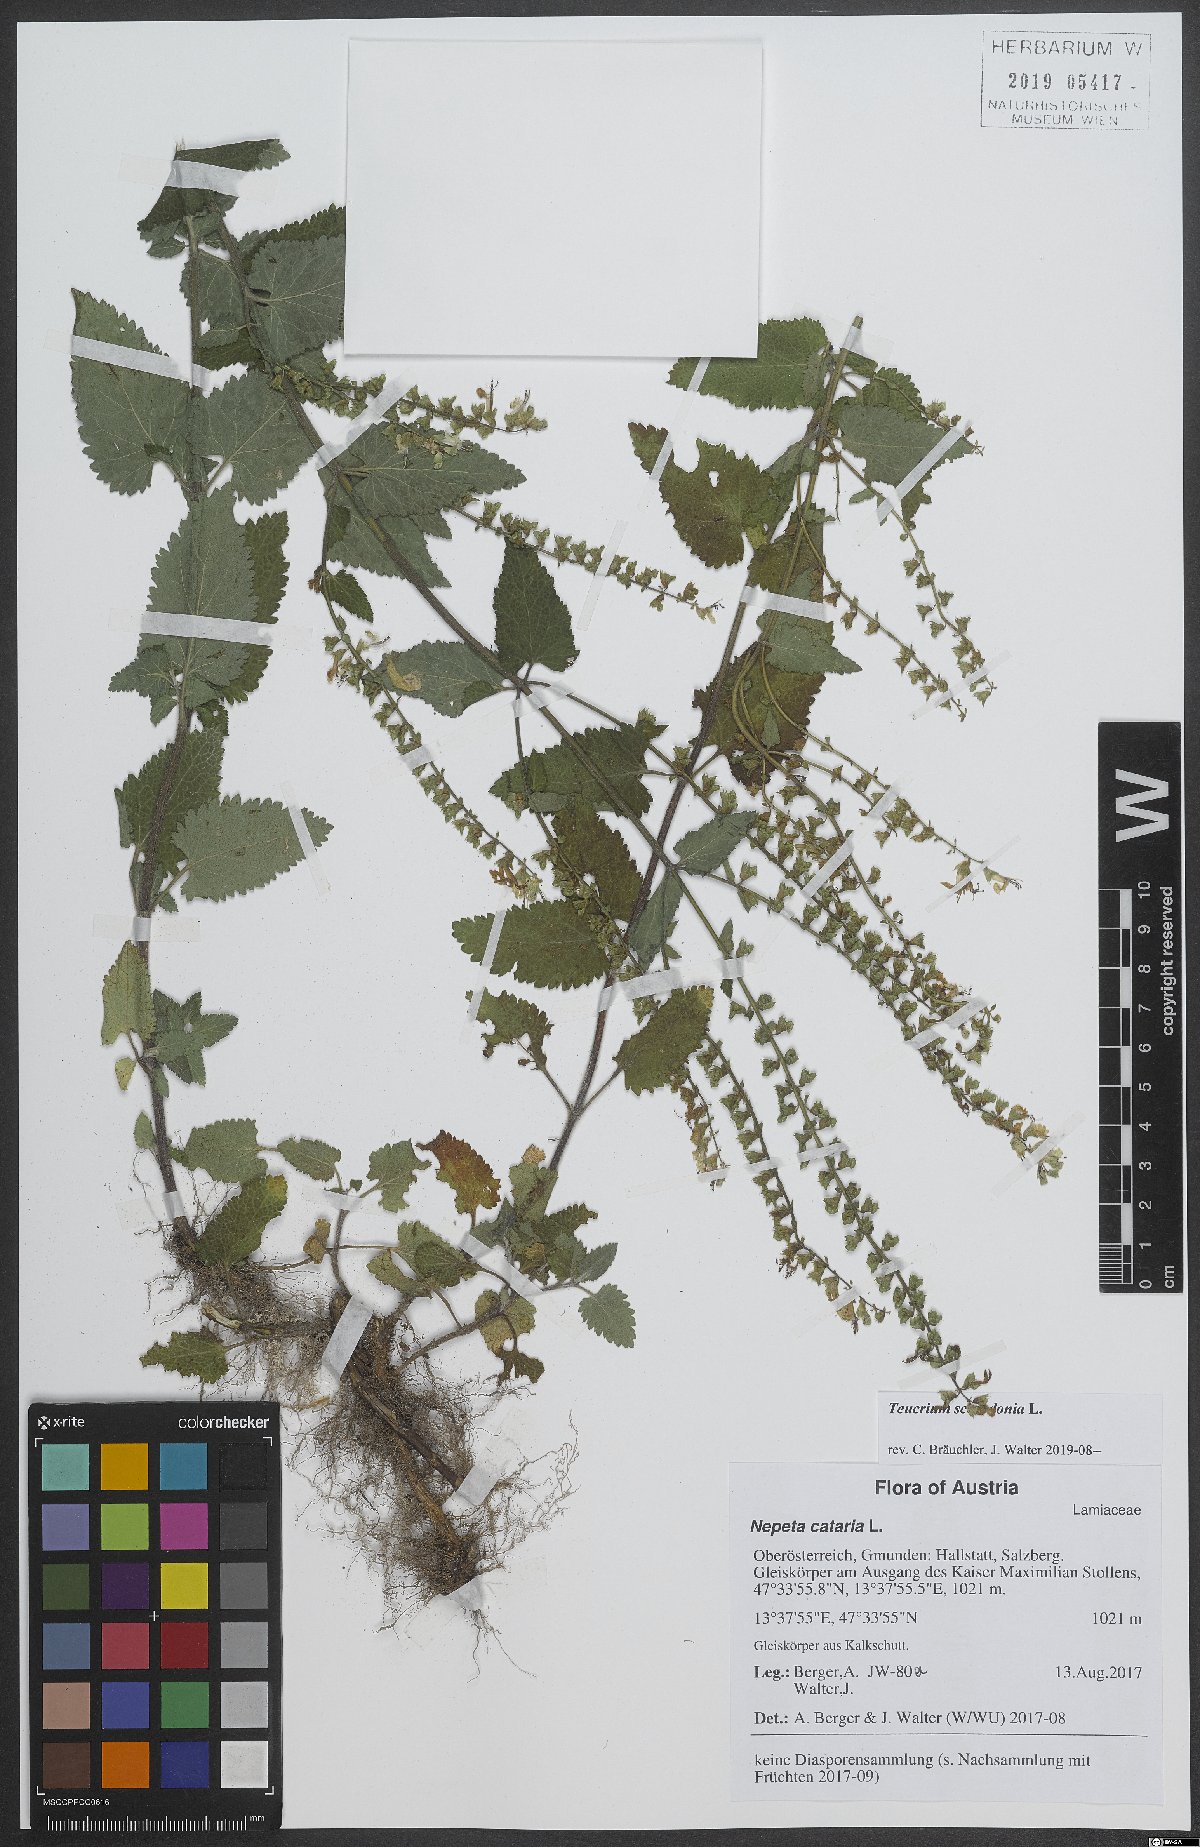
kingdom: Plantae
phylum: Tracheophyta
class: Magnoliopsida
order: Lamiales
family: Lamiaceae
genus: Teucrium
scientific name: Teucrium scorodonia
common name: Woodland germander
